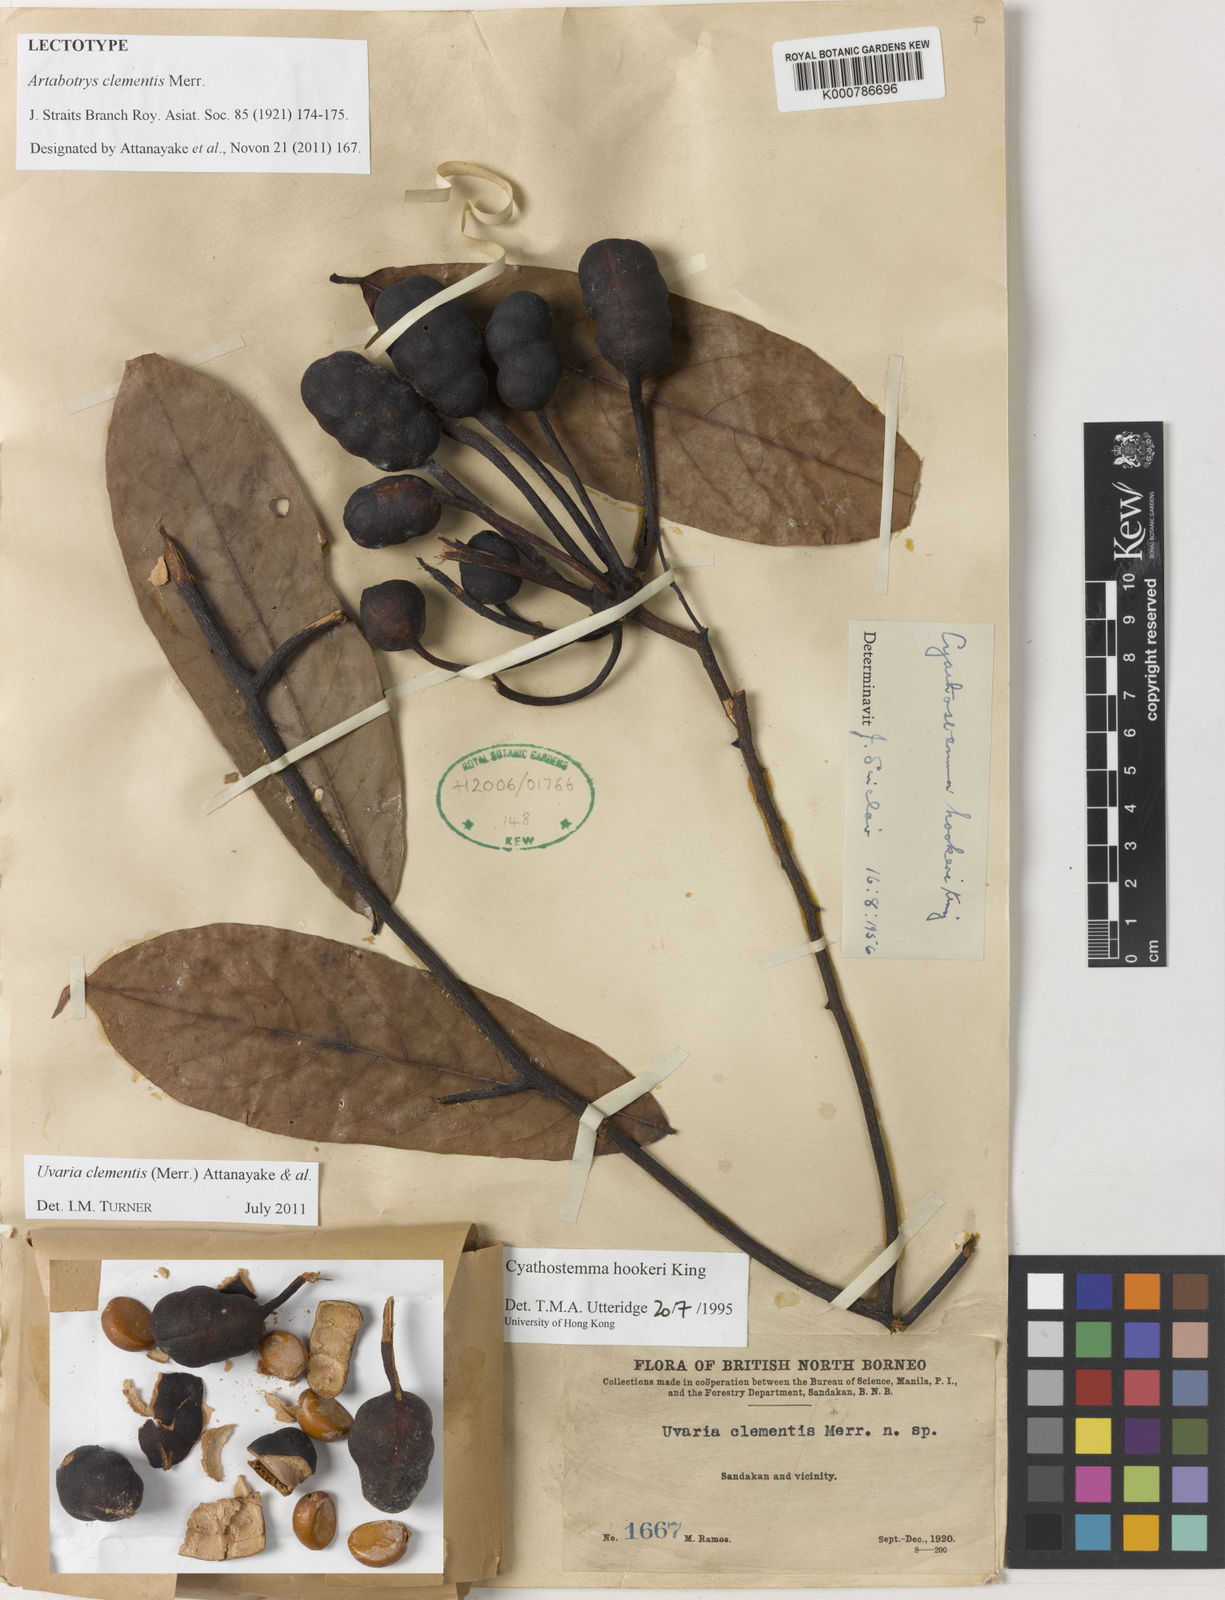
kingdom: Plantae
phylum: Tracheophyta
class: Magnoliopsida
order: Magnoliales
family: Annonaceae
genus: Uvaria
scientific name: Uvaria clementis
